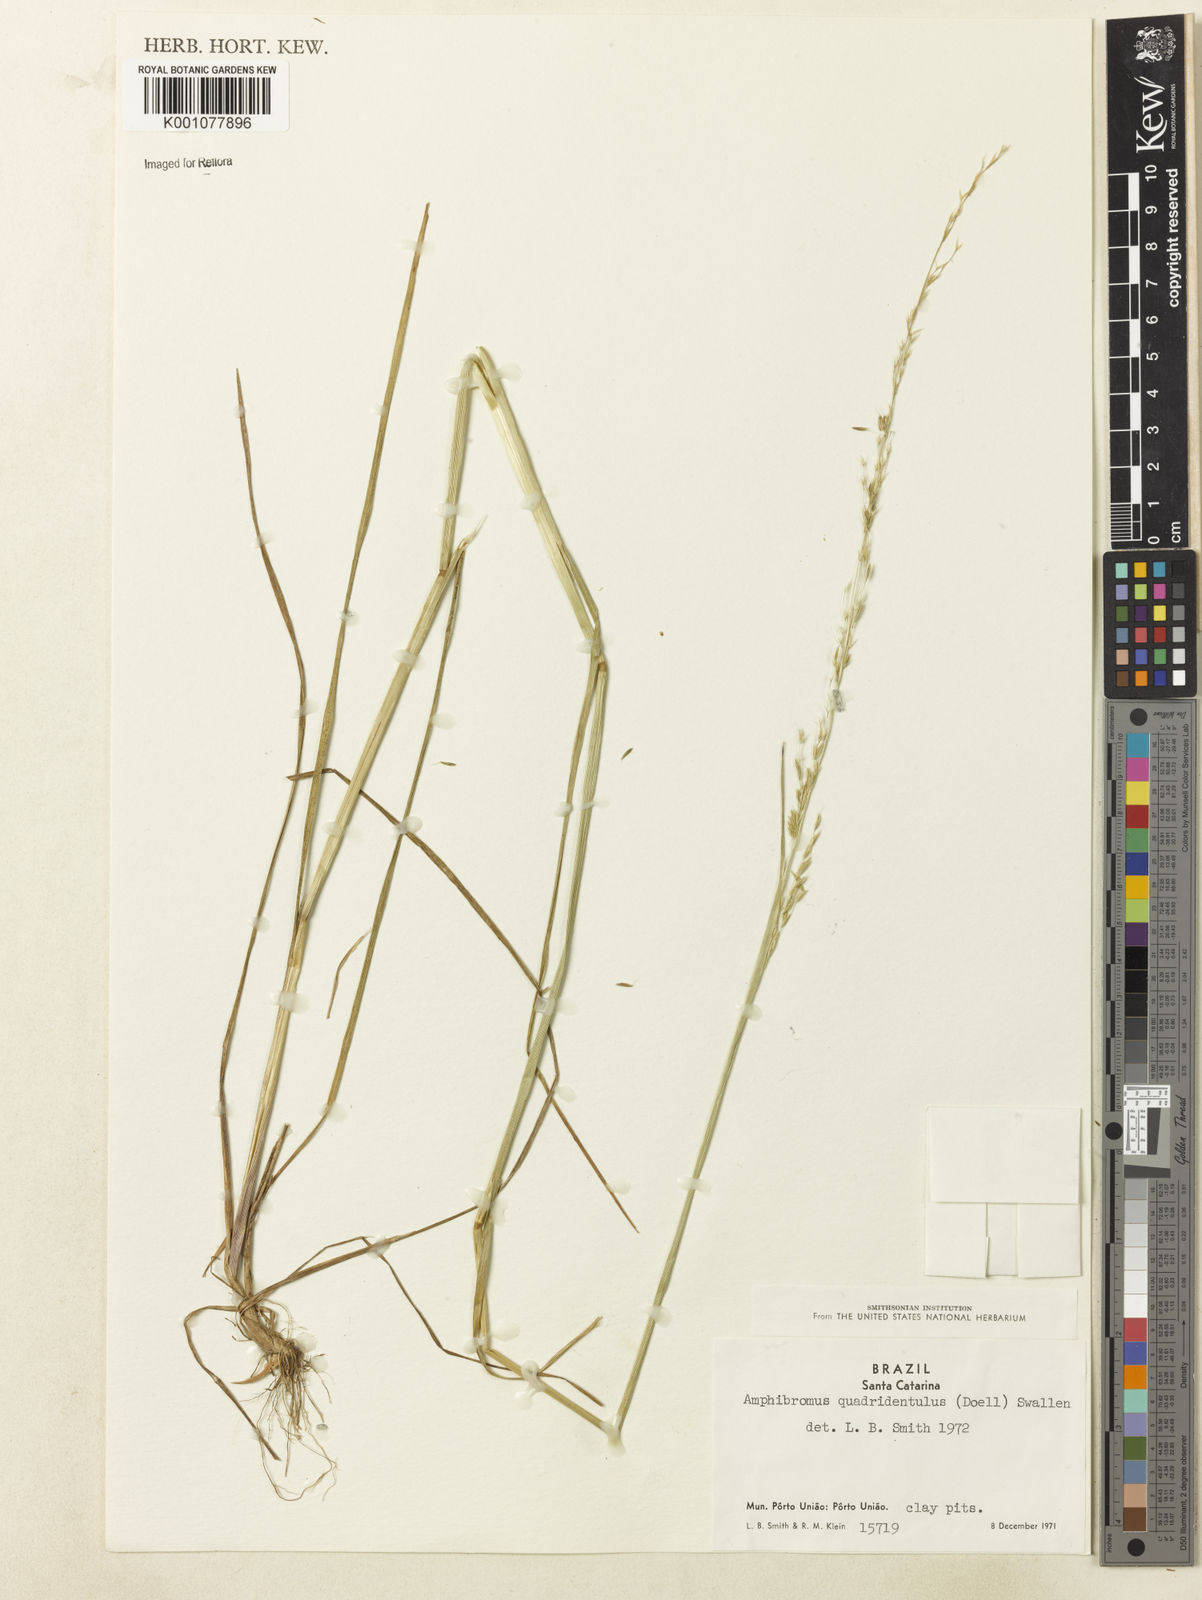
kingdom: Plantae
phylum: Tracheophyta
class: Liliopsida
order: Poales
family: Poaceae
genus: Helictotrichon
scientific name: Helictotrichon
